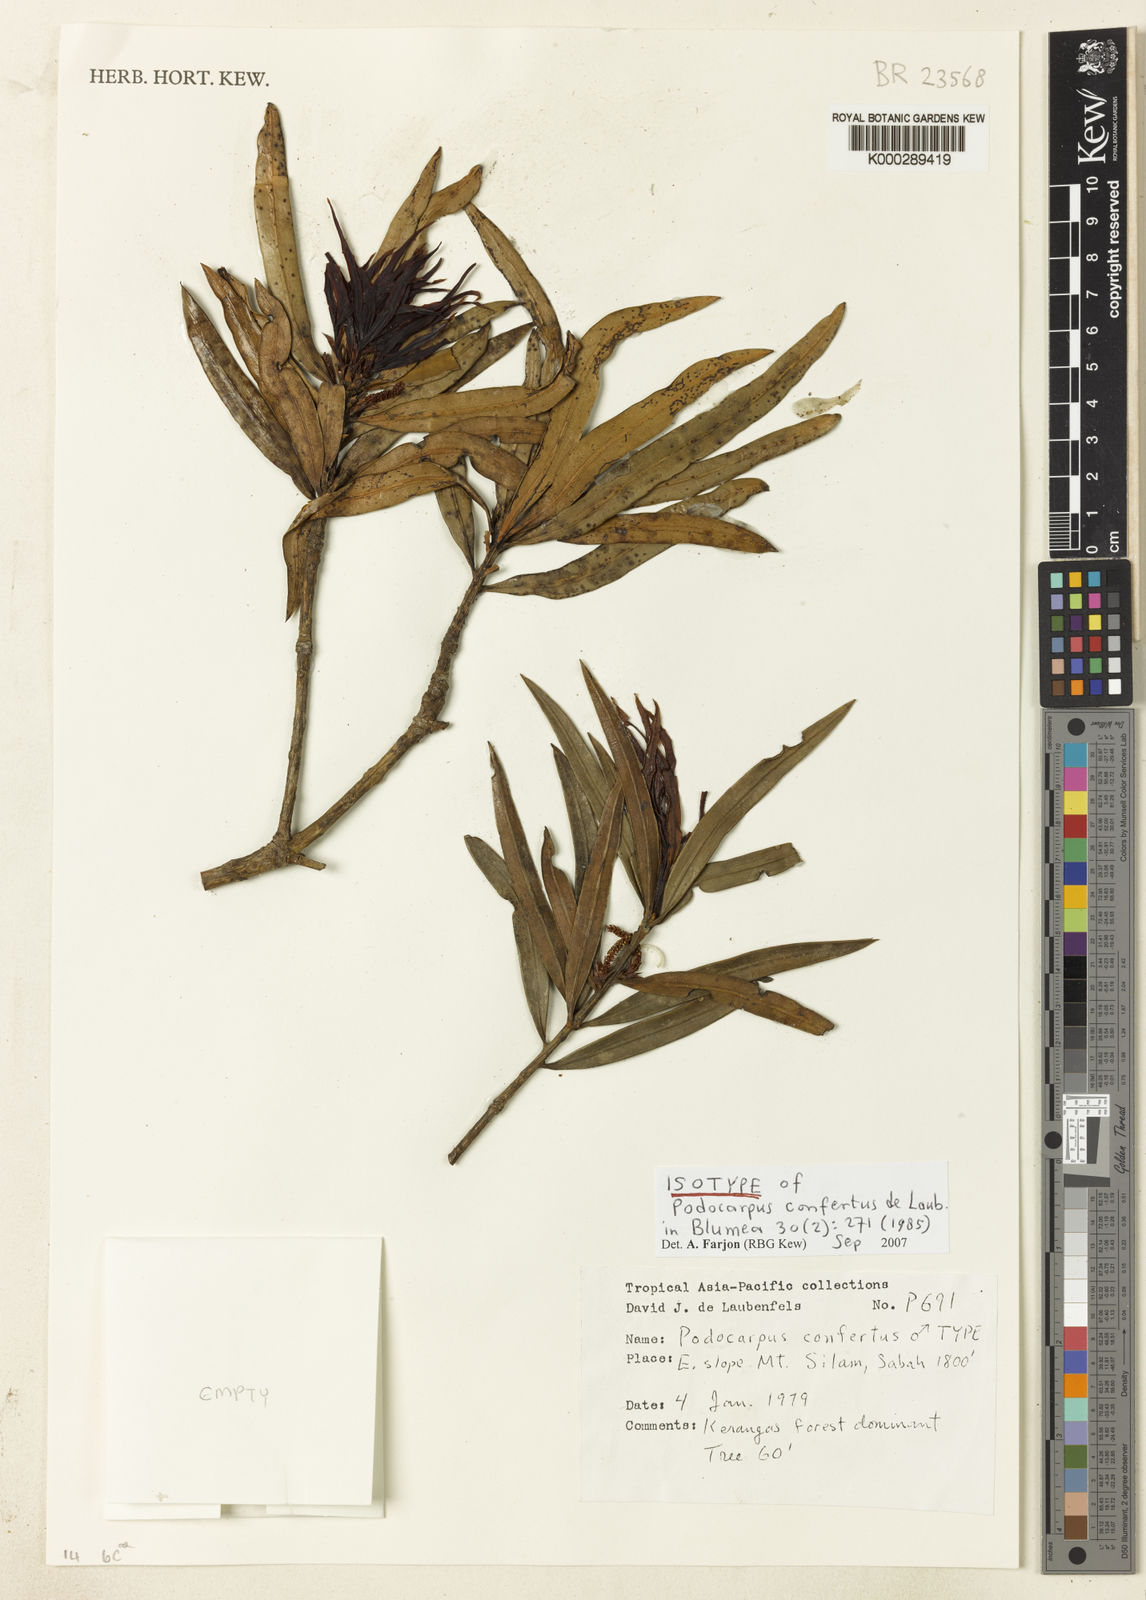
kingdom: Plantae
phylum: Tracheophyta
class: Pinopsida
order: Pinales
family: Podocarpaceae
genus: Podocarpus
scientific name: Podocarpus confertus
